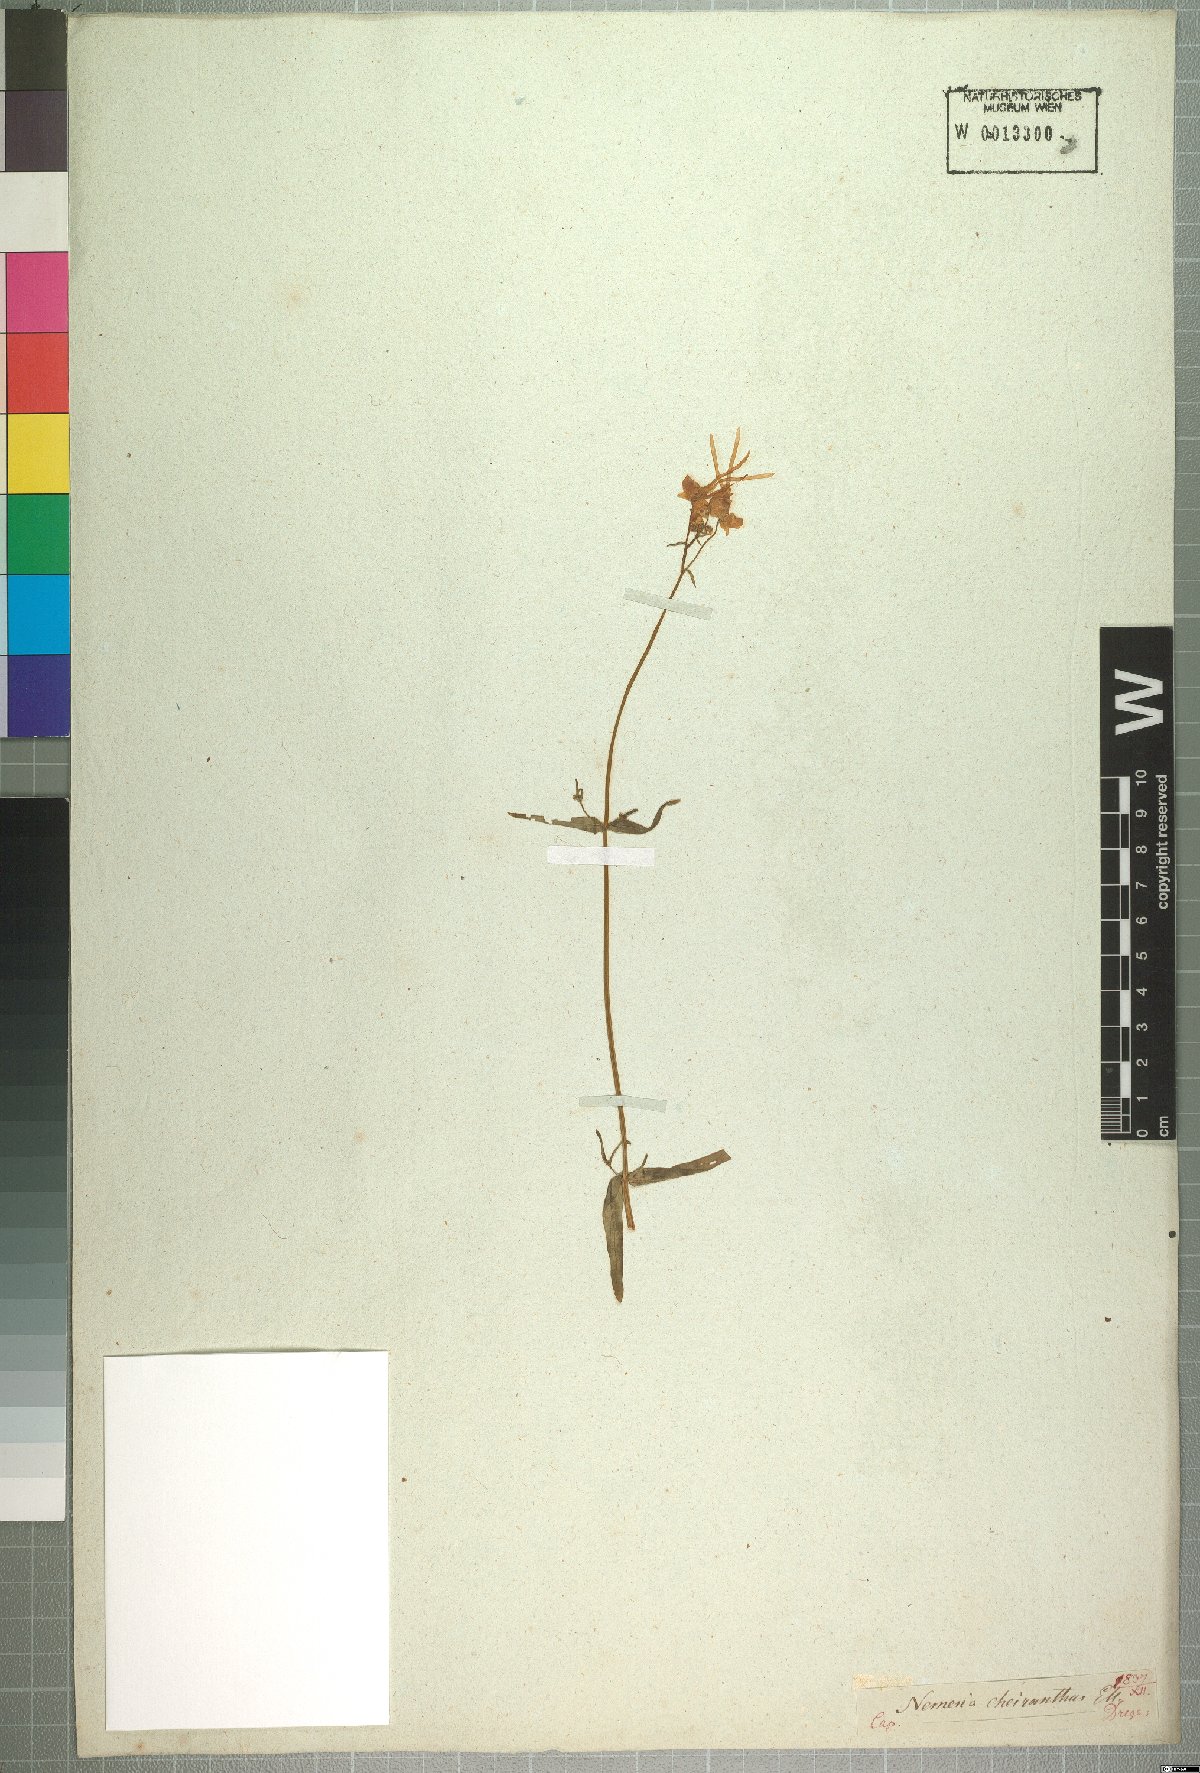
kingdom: Plantae
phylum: Tracheophyta
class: Magnoliopsida
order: Lamiales
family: Scrophulariaceae
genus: Nemesia
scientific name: Nemesia cheiranthus
